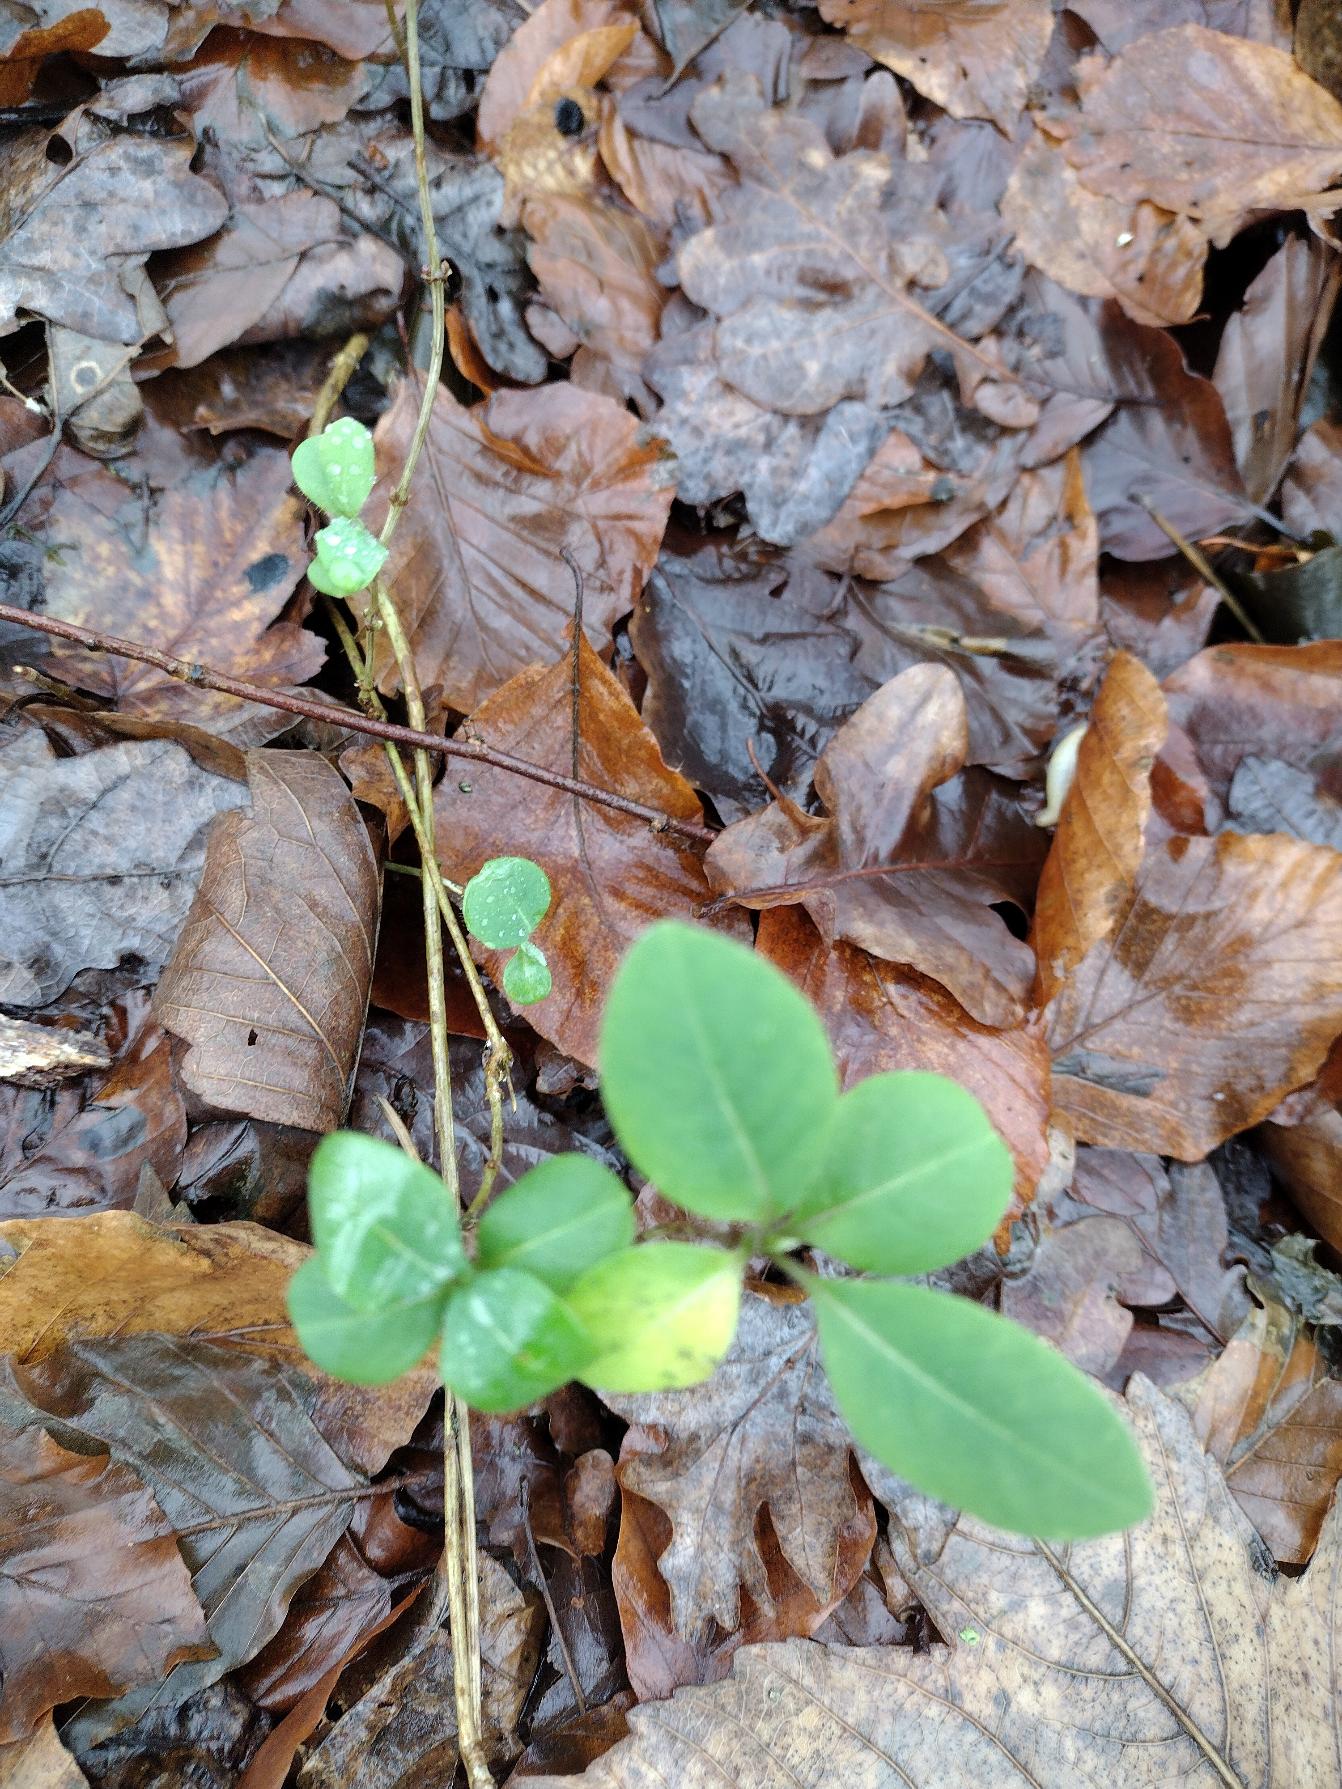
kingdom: Plantae
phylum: Tracheophyta
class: Magnoliopsida
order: Dipsacales
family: Caprifoliaceae
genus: Lonicera
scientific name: Lonicera periclymenum
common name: Almindelig gedeblad
